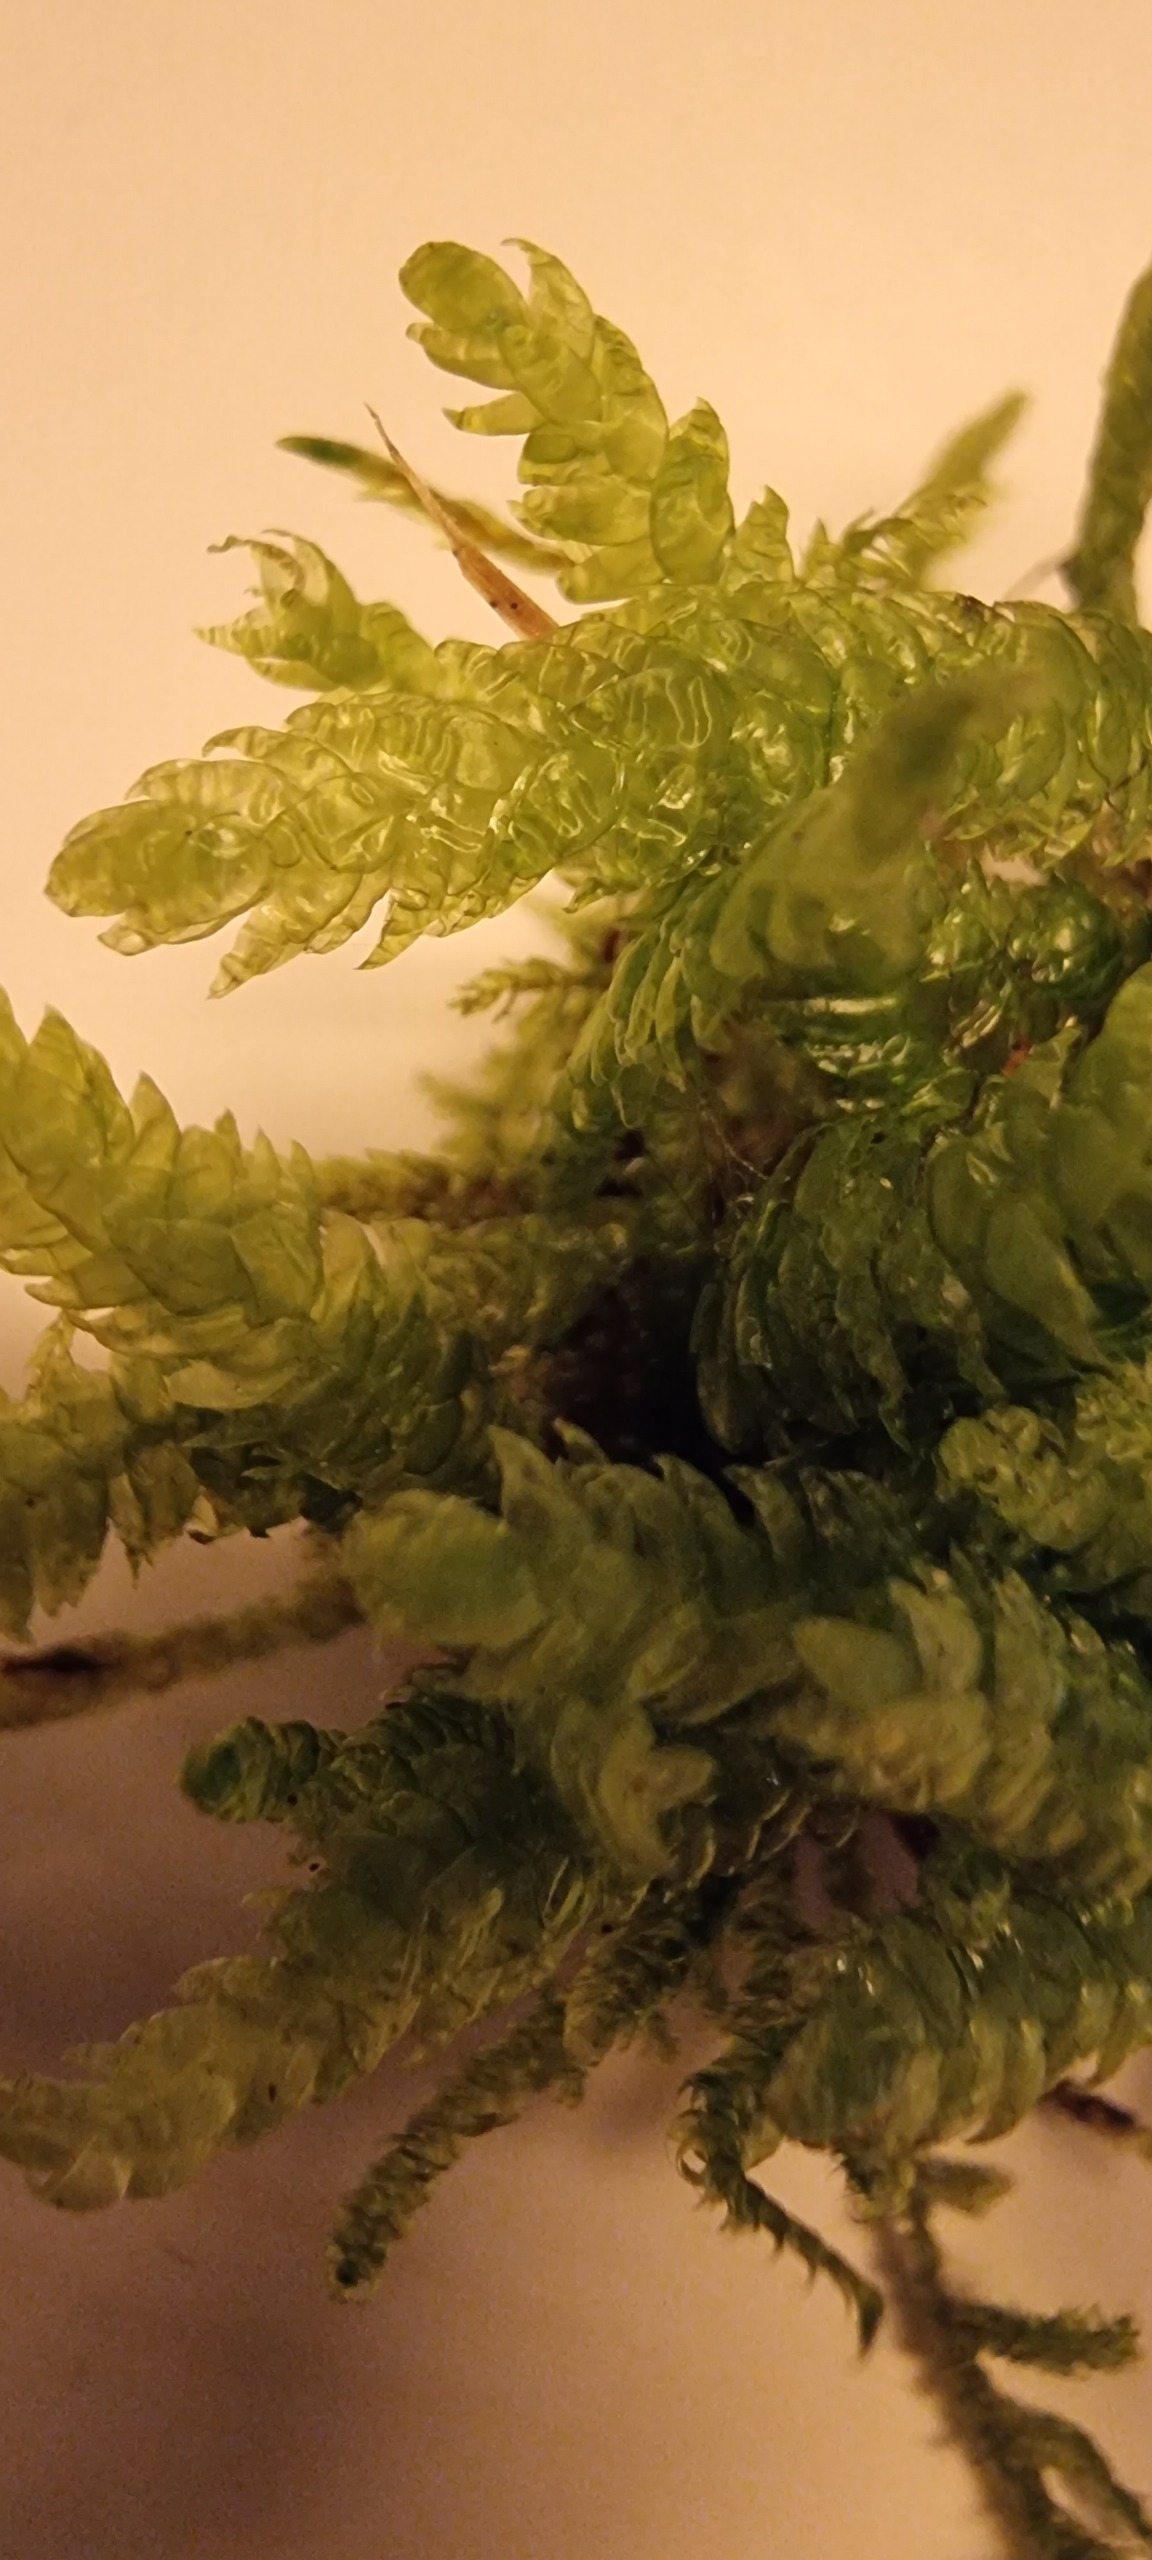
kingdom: Plantae
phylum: Bryophyta
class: Bryopsida
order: Hypnales
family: Plagiotheciaceae
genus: Plagiothecium
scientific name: Plagiothecium undulatum
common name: Bølget tæppemos
